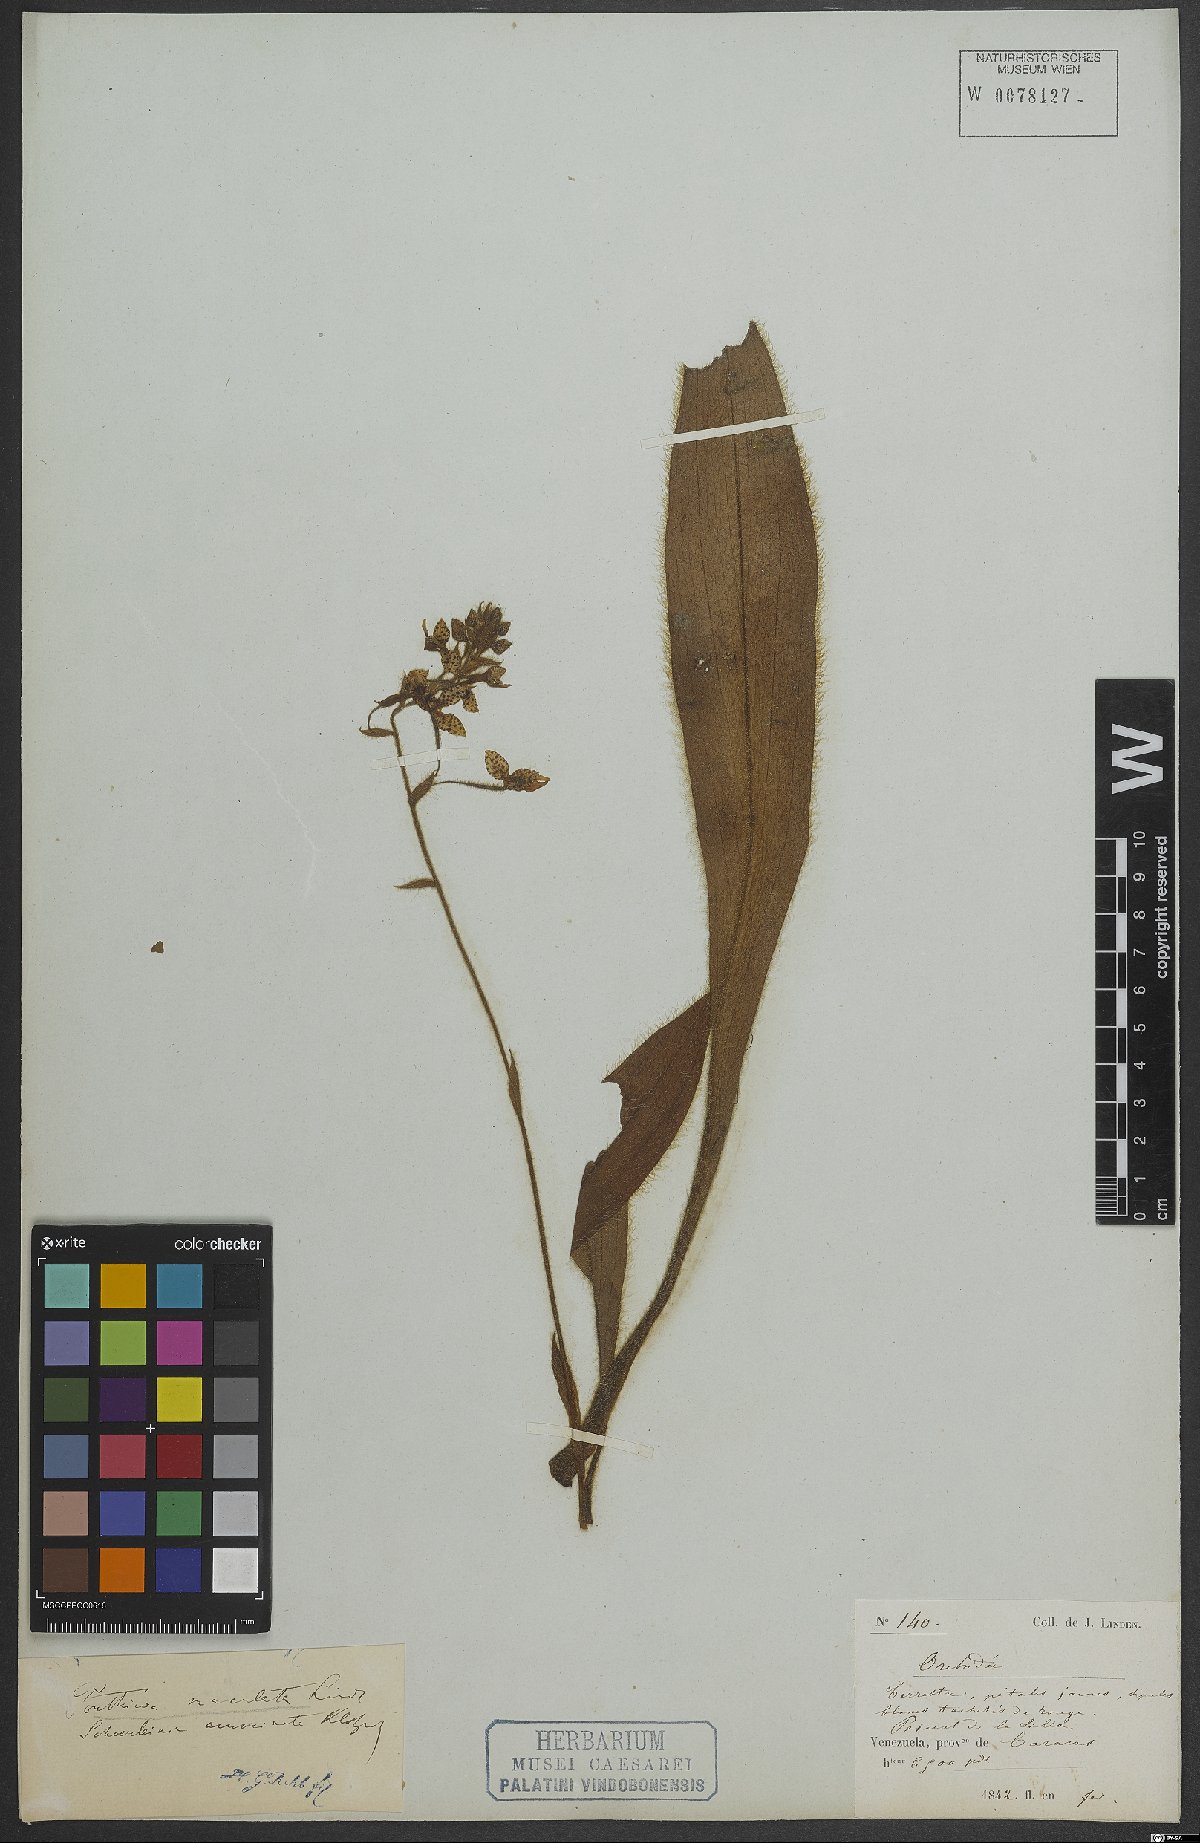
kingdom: Plantae
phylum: Tracheophyta
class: Liliopsida
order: Asparagales
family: Orchidaceae
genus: Ponthieva
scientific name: Ponthieva maculata
